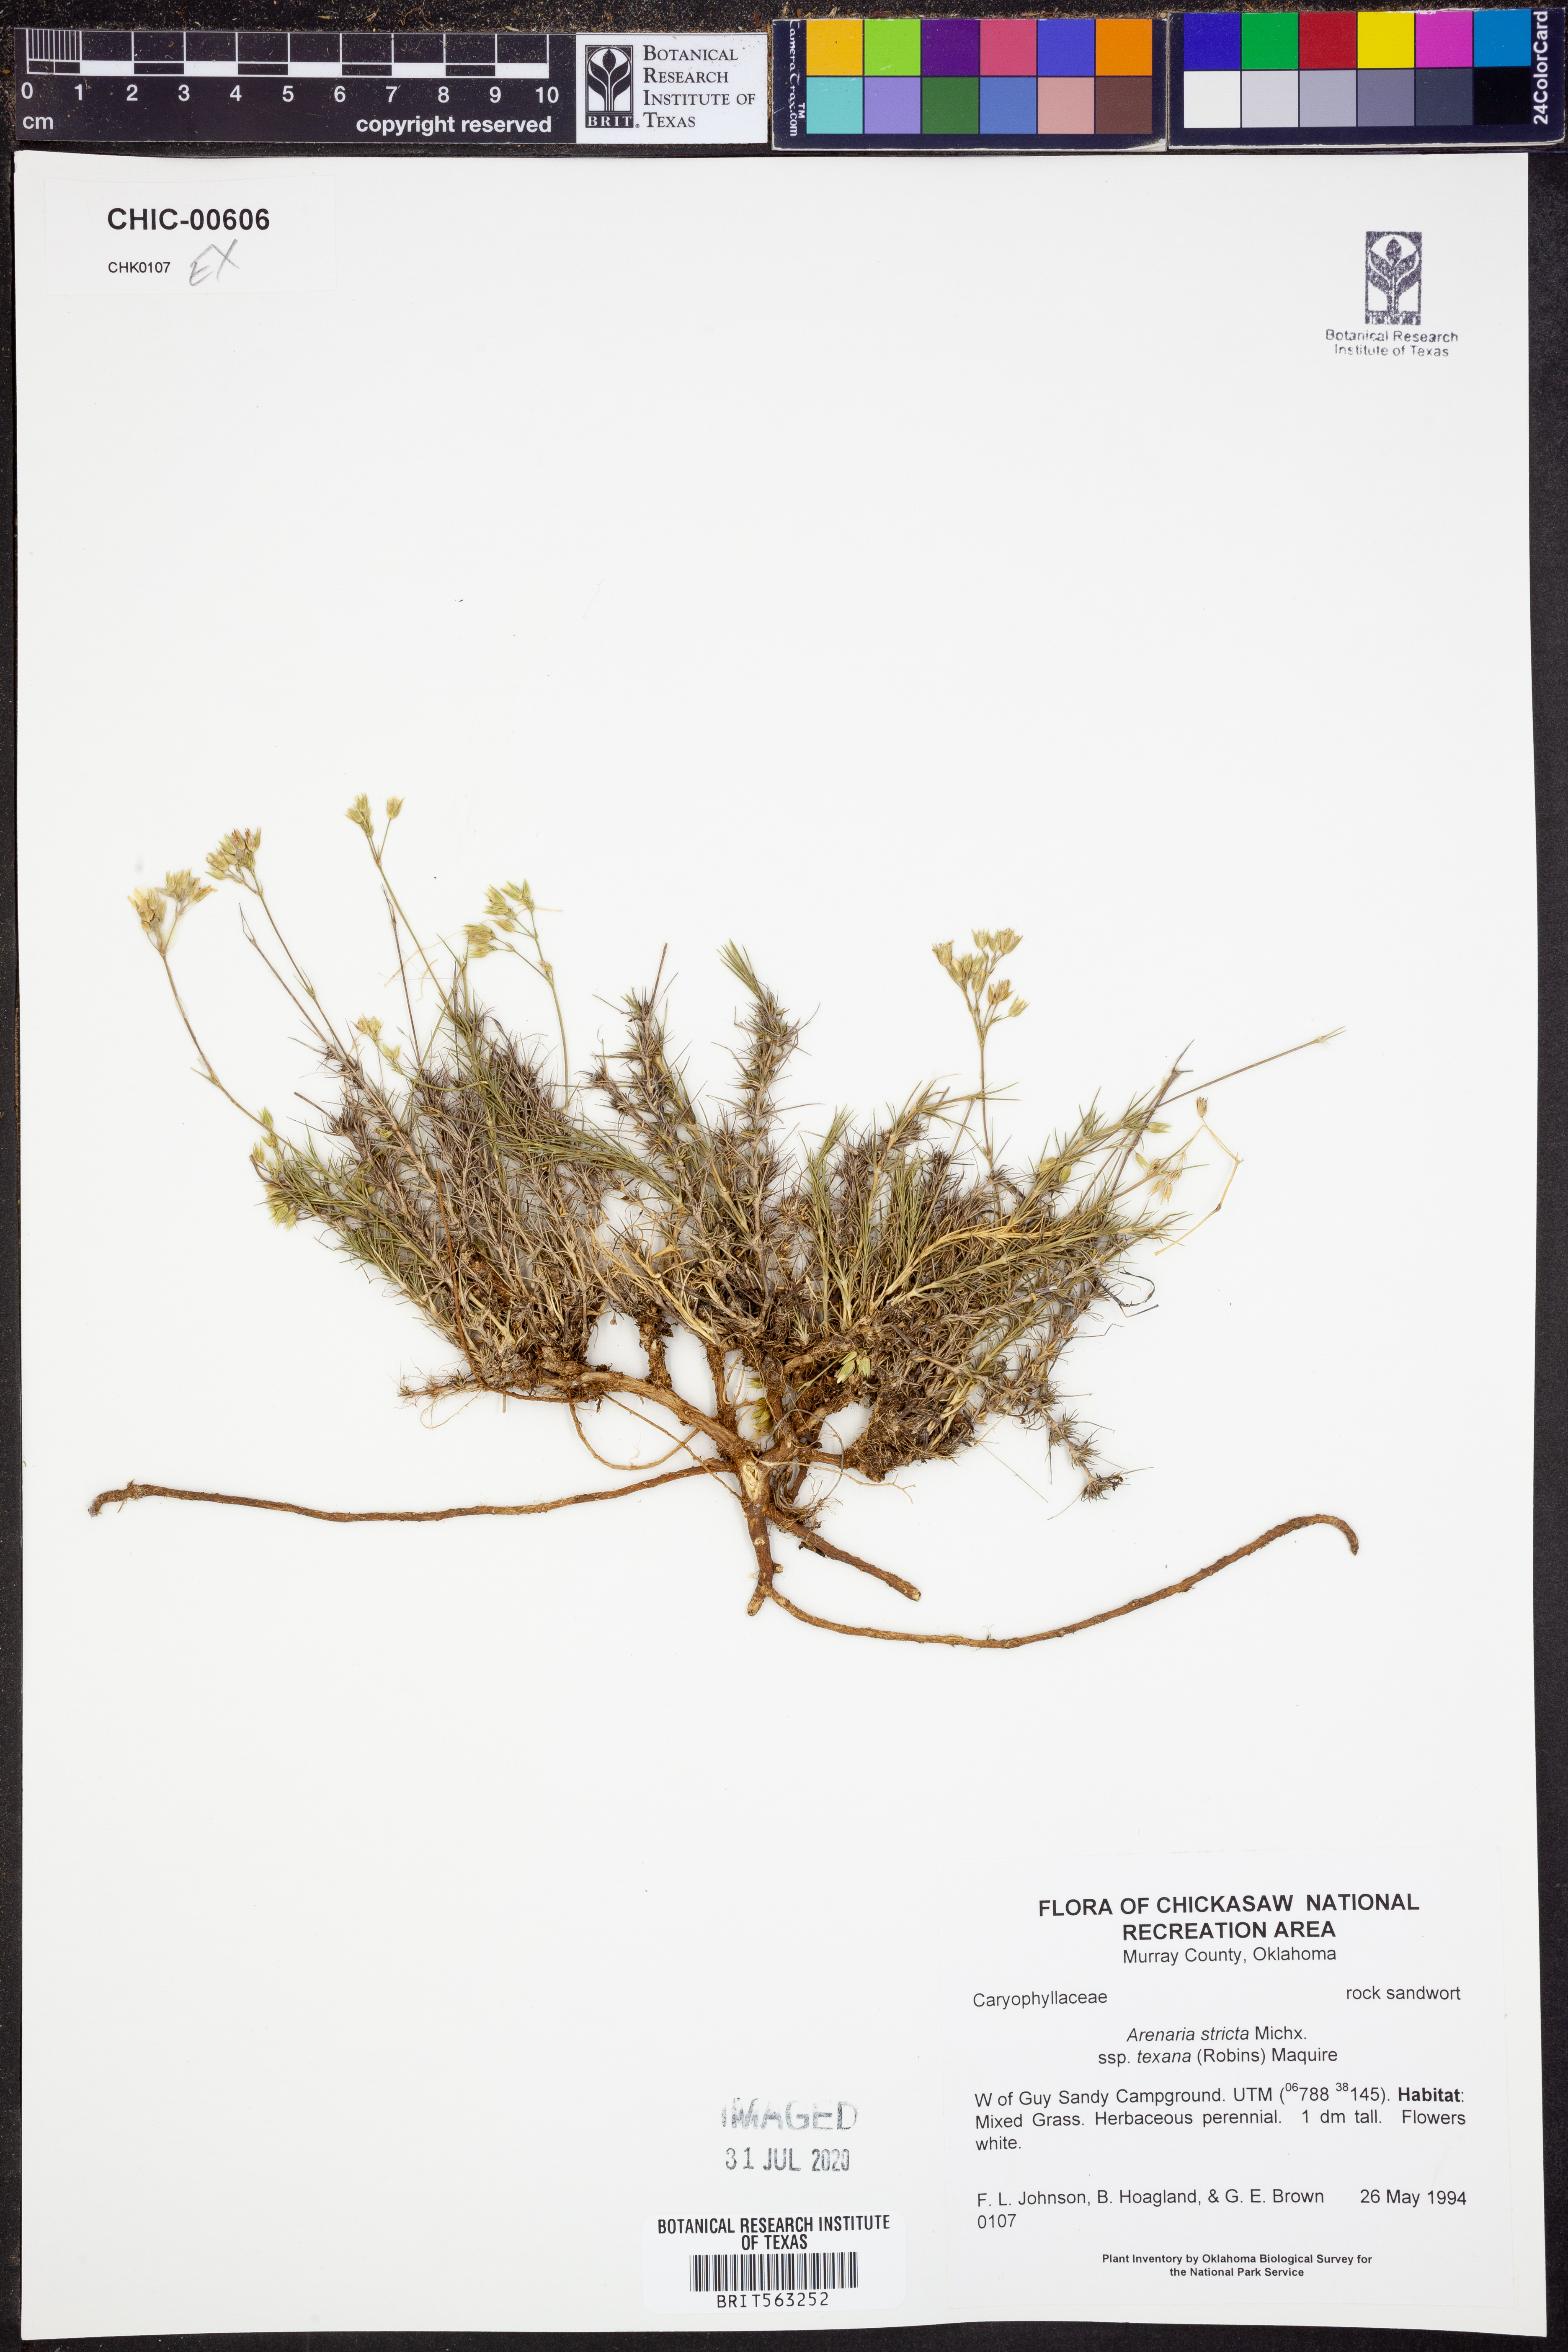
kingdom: Plantae
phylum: Tracheophyta
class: Magnoliopsida
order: Caryophyllales
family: Caryophyllaceae
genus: Sabulina
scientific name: Sabulina texana
